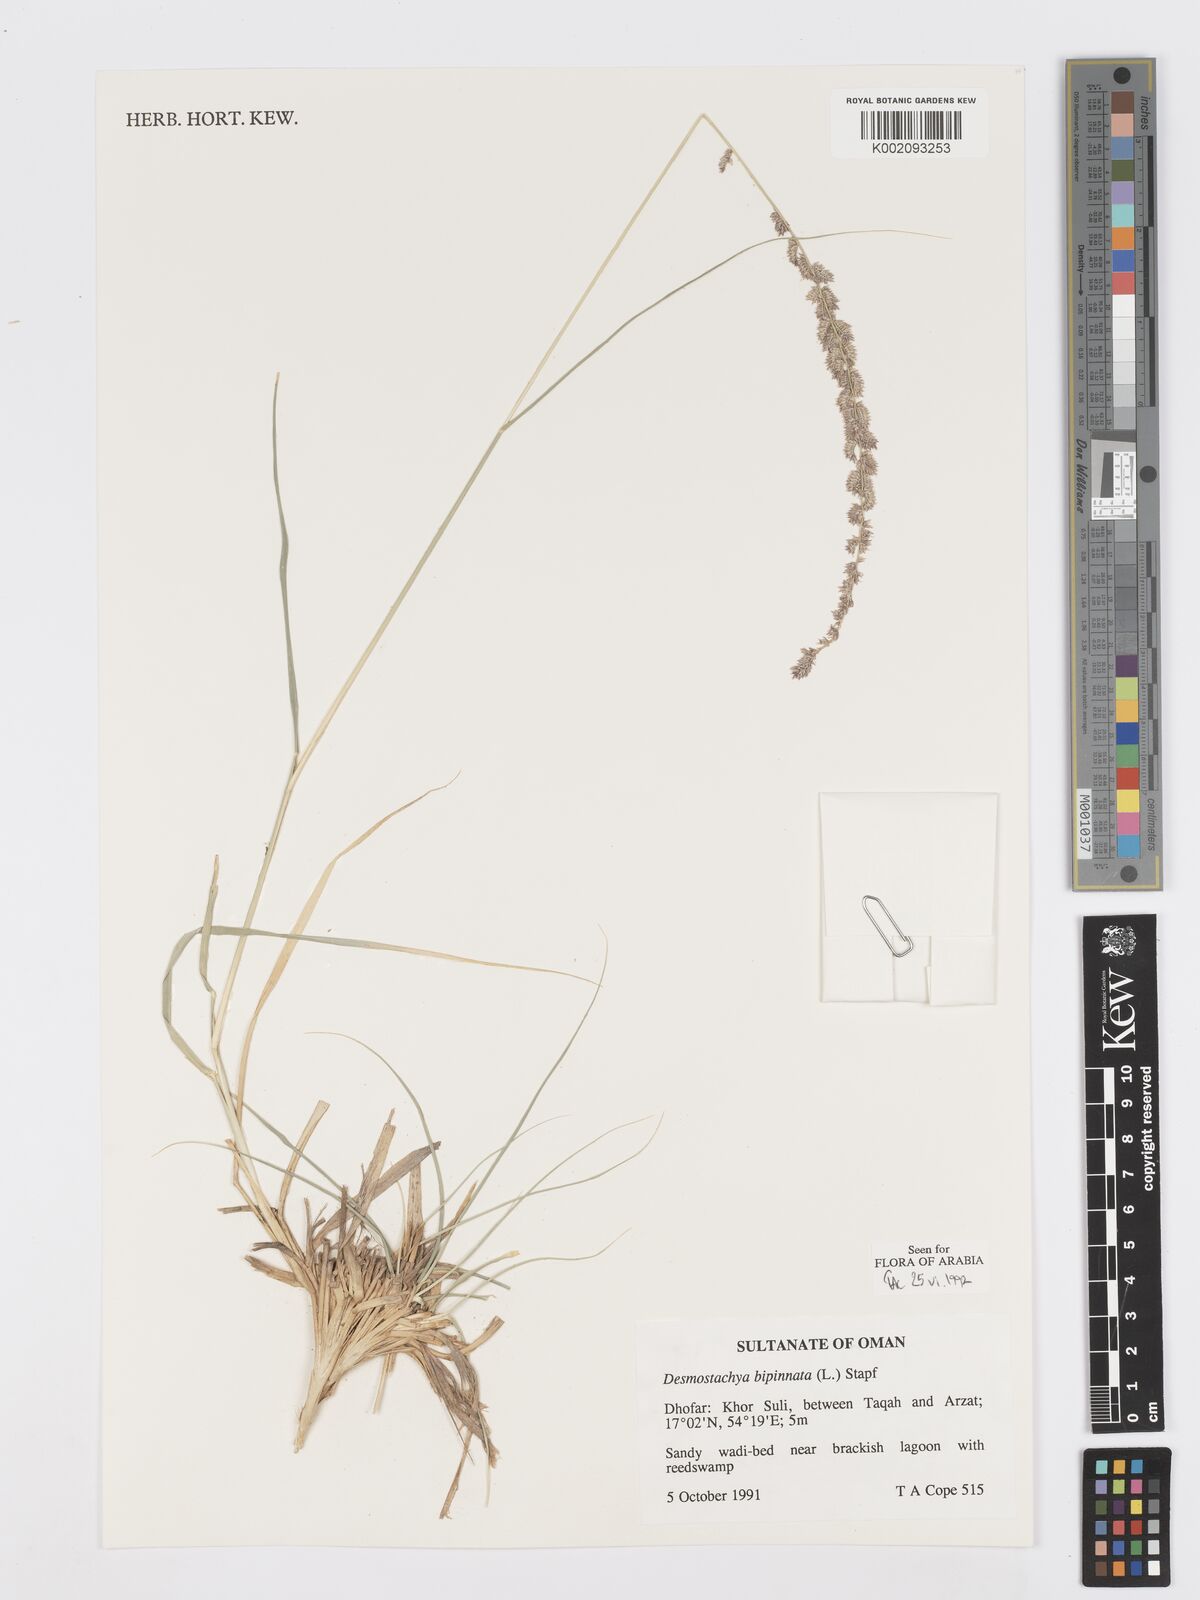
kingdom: Plantae
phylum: Tracheophyta
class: Liliopsida
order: Poales
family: Poaceae
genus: Desmostachya
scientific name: Desmostachya bipinnata
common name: Crowfoot grass
